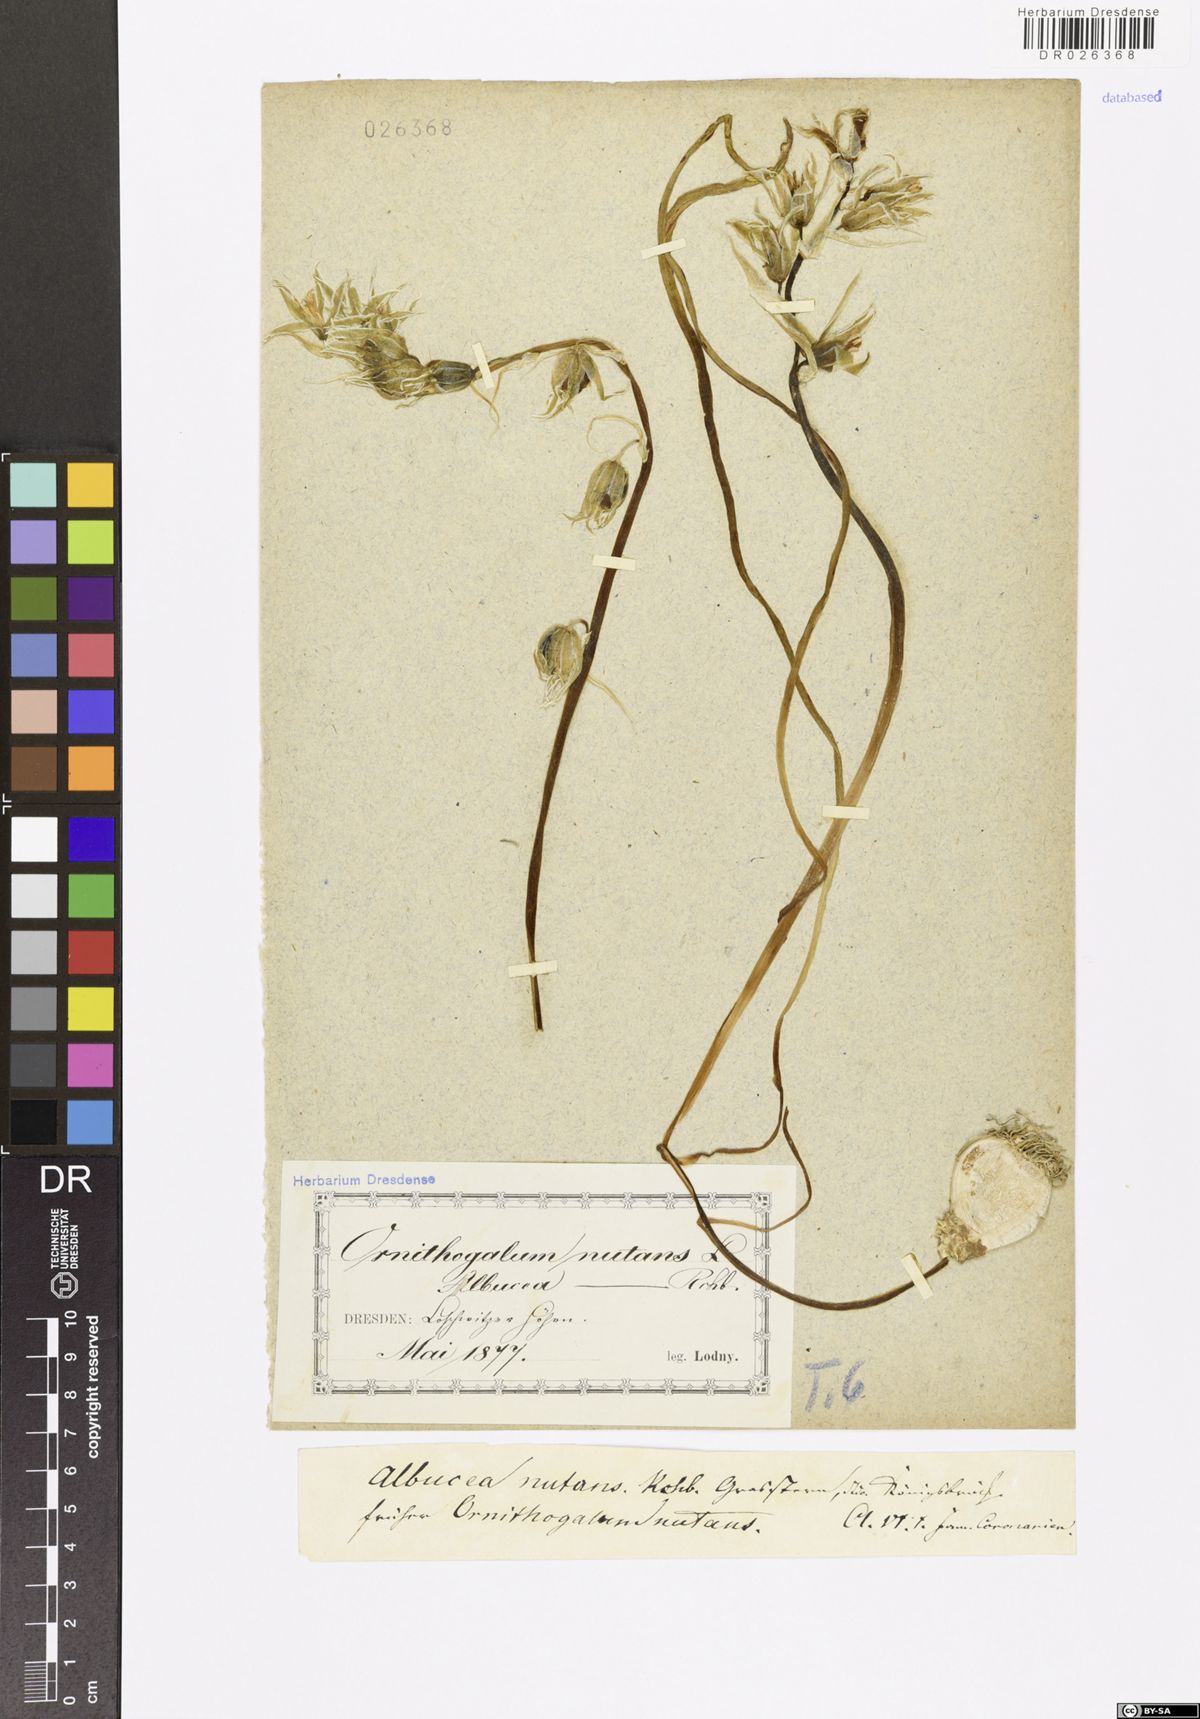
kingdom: Plantae
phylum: Tracheophyta
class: Liliopsida
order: Asparagales
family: Asparagaceae
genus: Ornithogalum
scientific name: Ornithogalum nutans
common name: Drooping star-of-bethlehem
